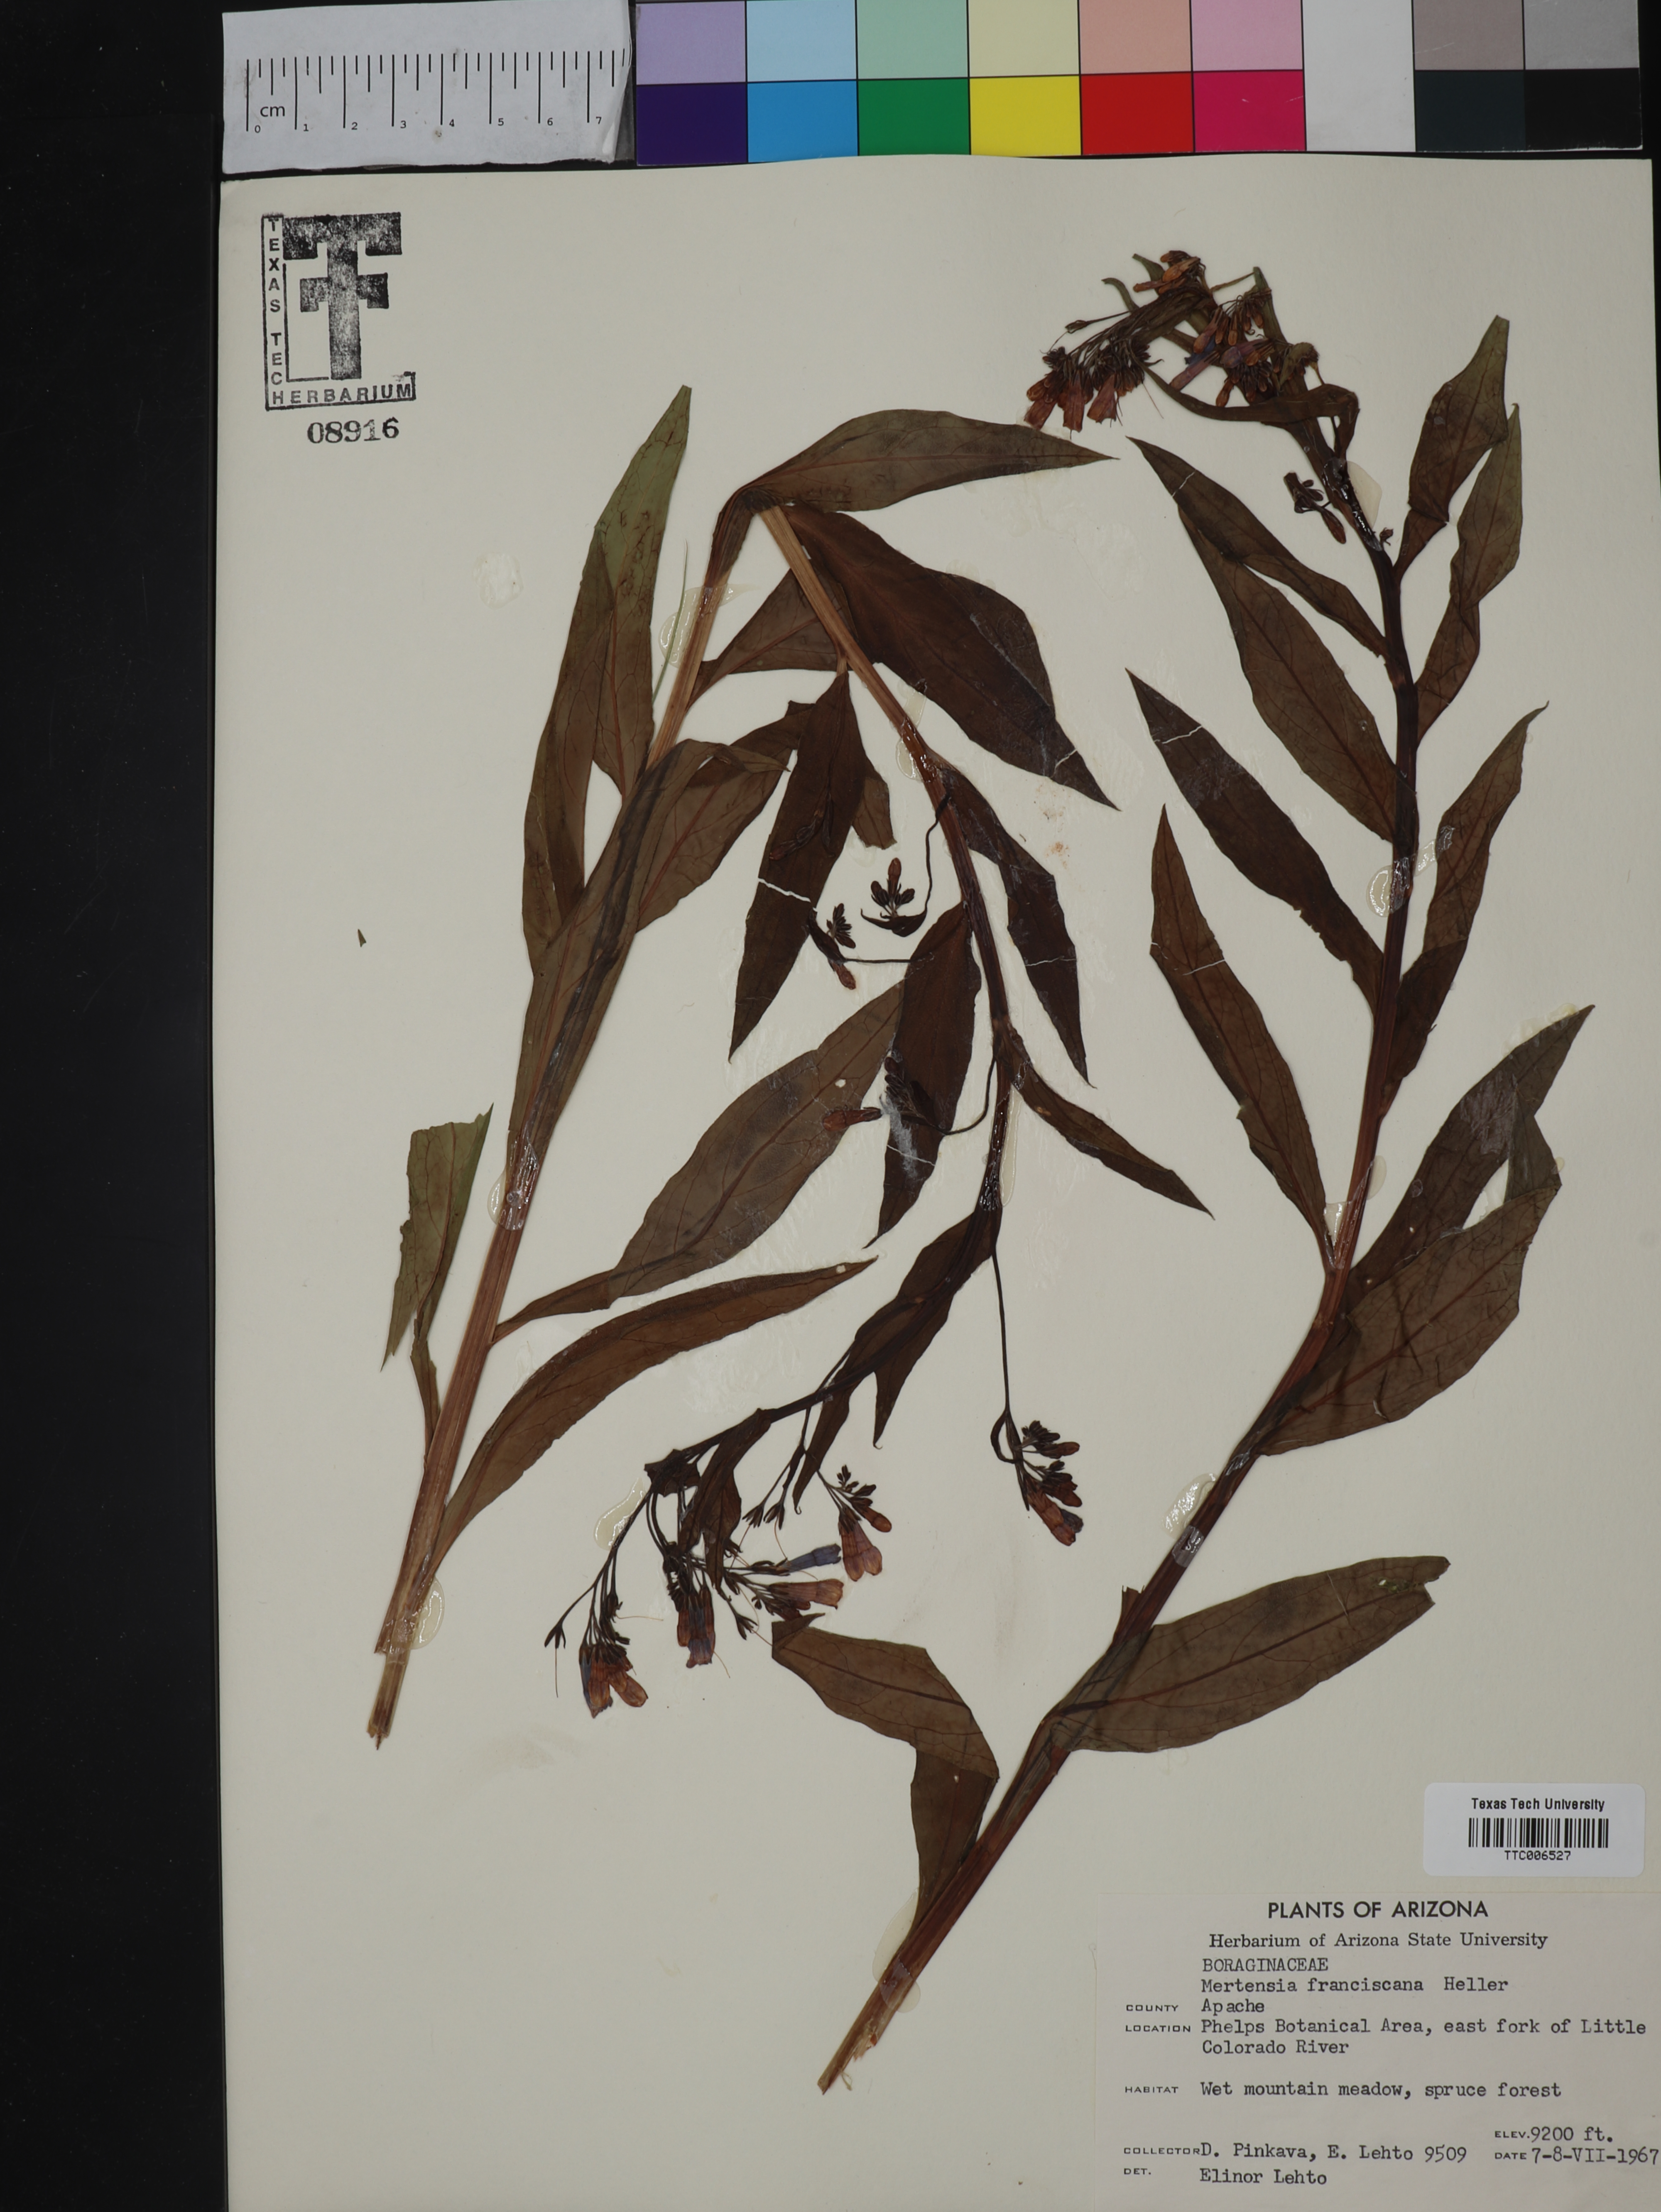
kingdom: Plantae
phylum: Tracheophyta
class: Magnoliopsida
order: Boraginales
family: Boraginaceae
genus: Mertensia
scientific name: Mertensia franciscana
